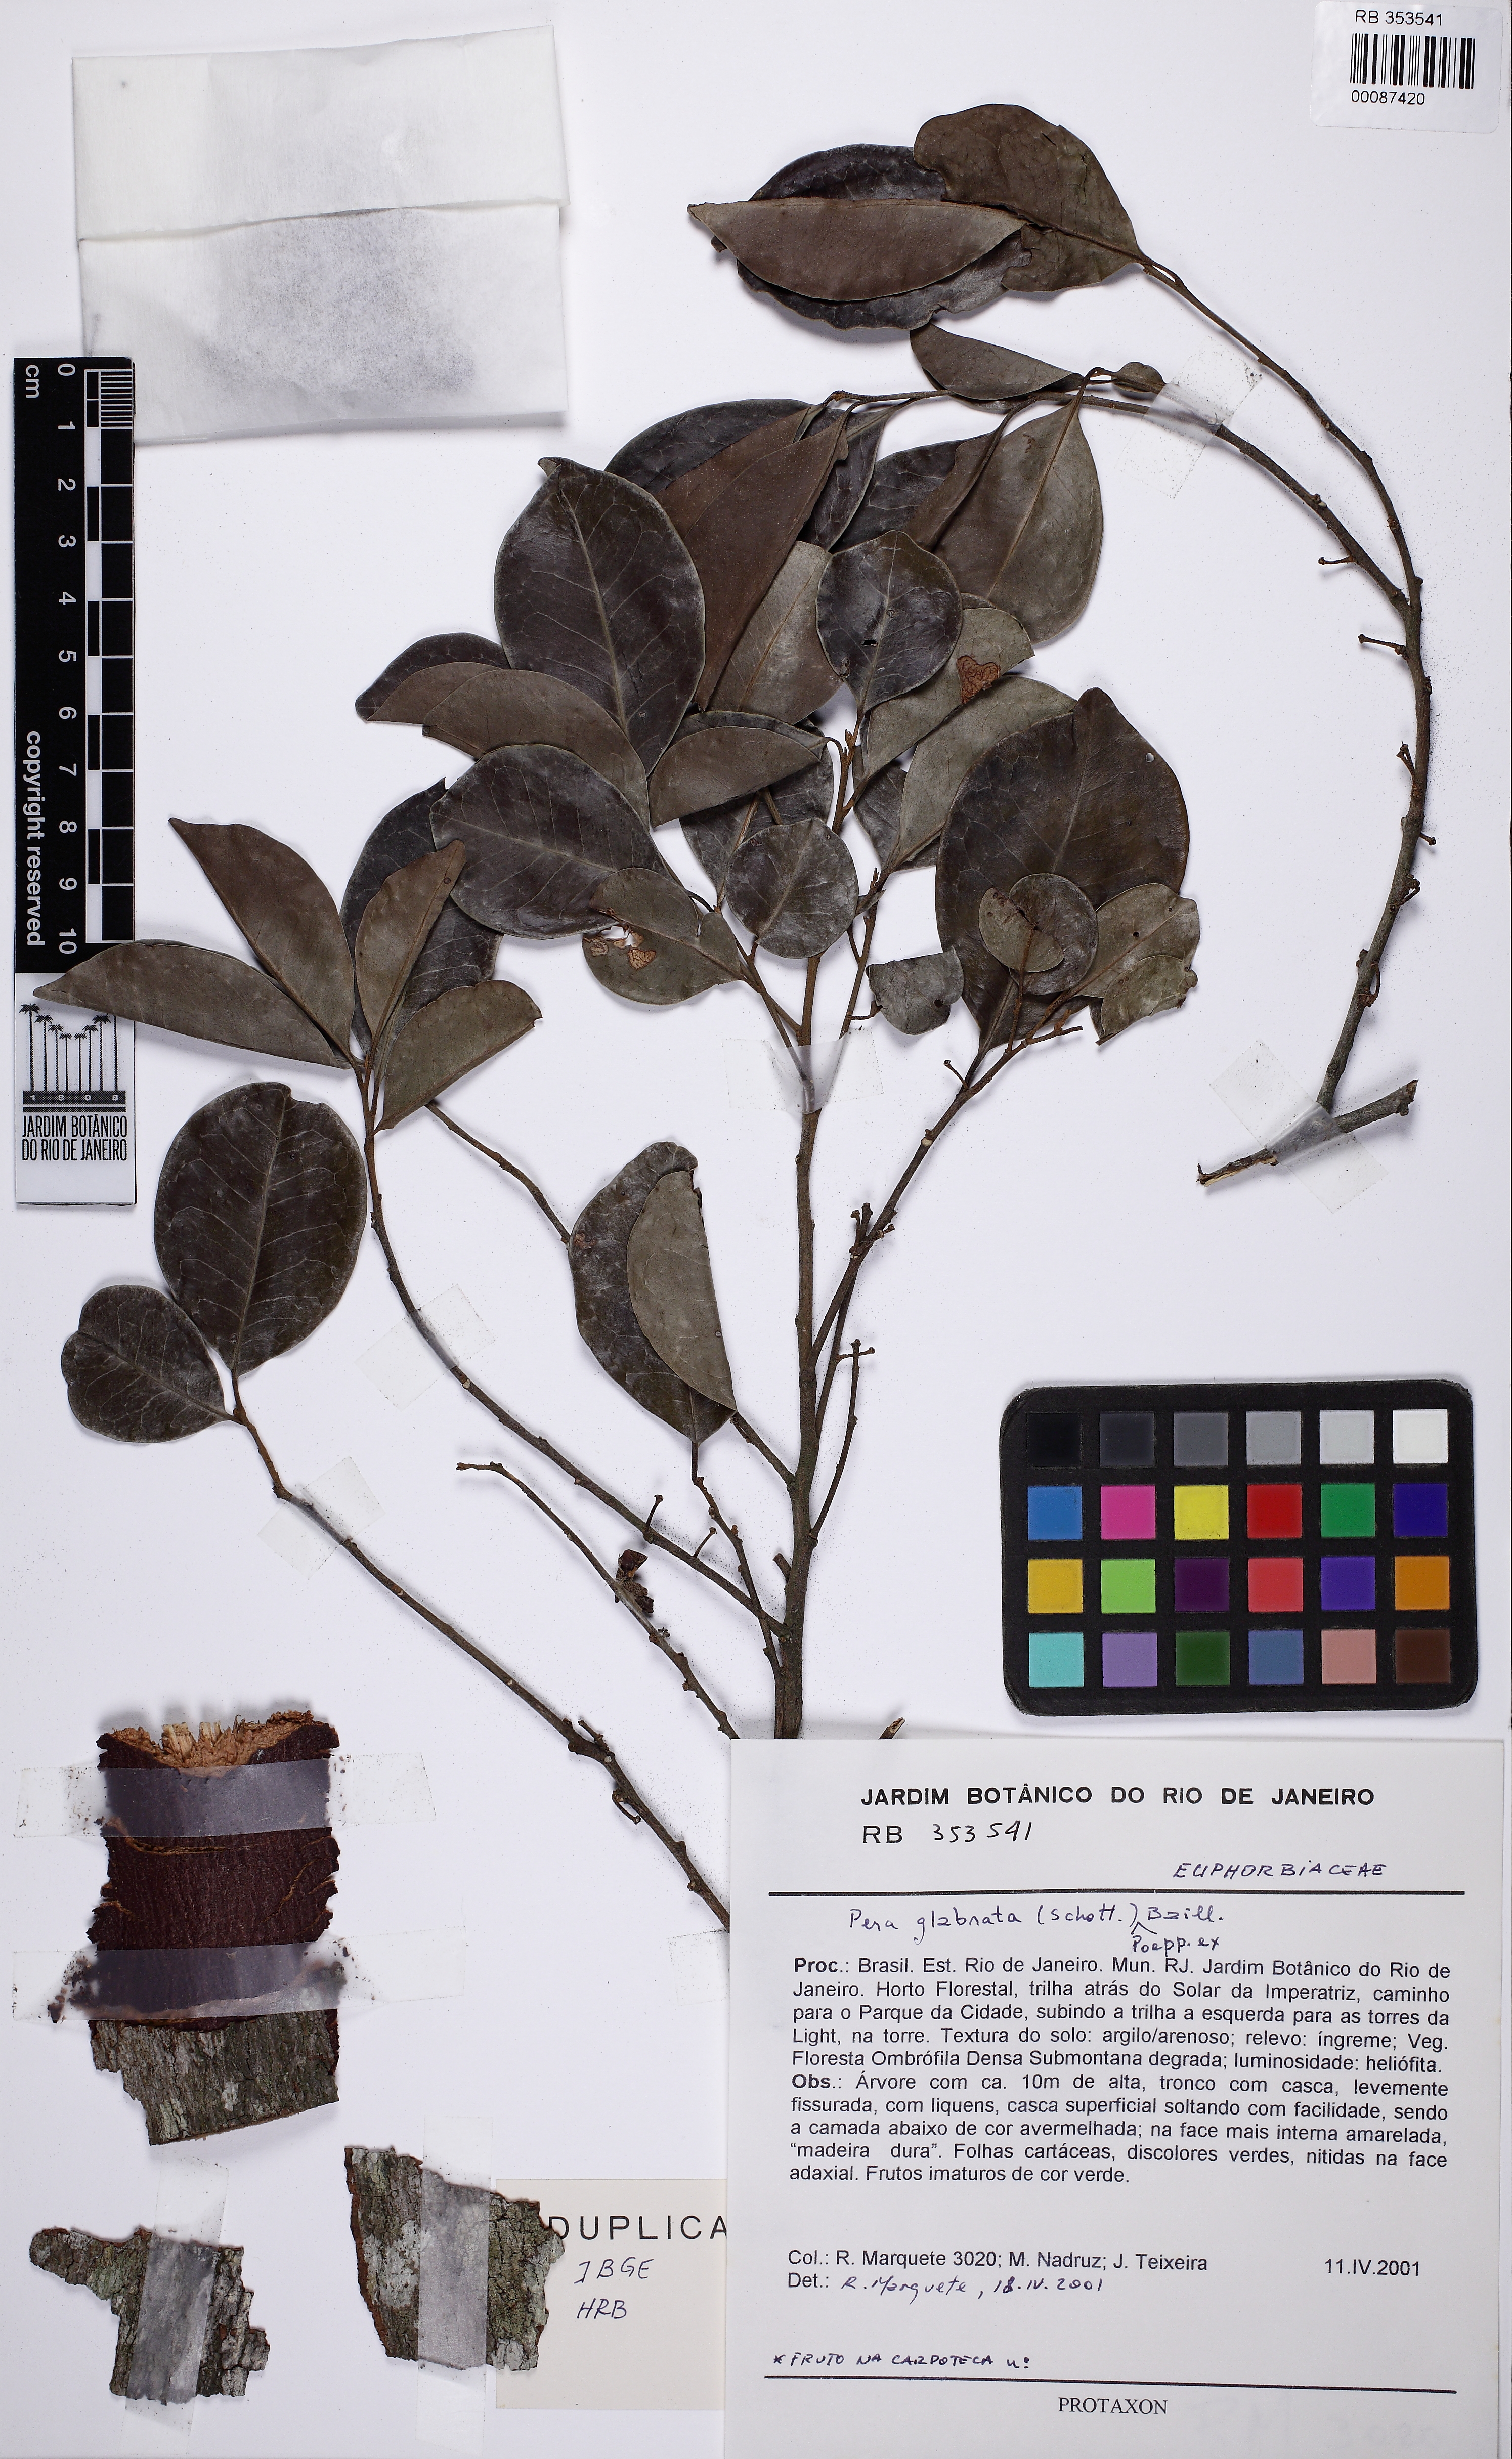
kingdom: Plantae
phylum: Tracheophyta
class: Magnoliopsida
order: Malpighiales
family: Peraceae
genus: Pera
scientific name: Pera glabrata
